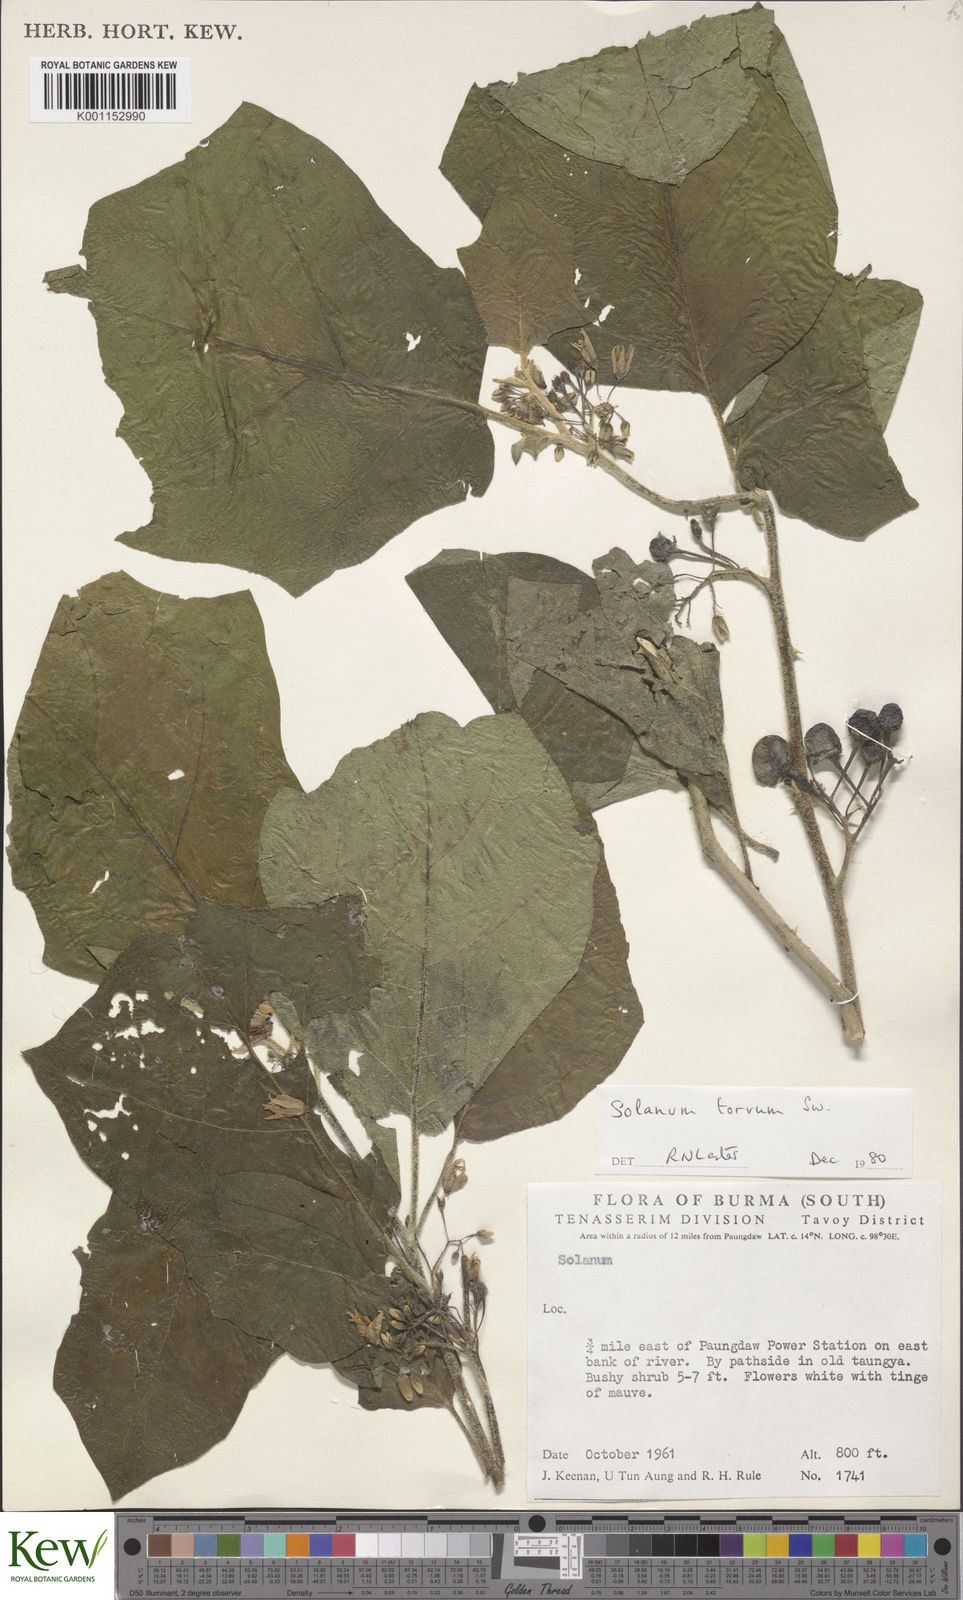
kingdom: Plantae
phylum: Tracheophyta
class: Magnoliopsida
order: Solanales
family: Solanaceae
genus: Solanum
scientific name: Solanum torvum
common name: Turkey berry
